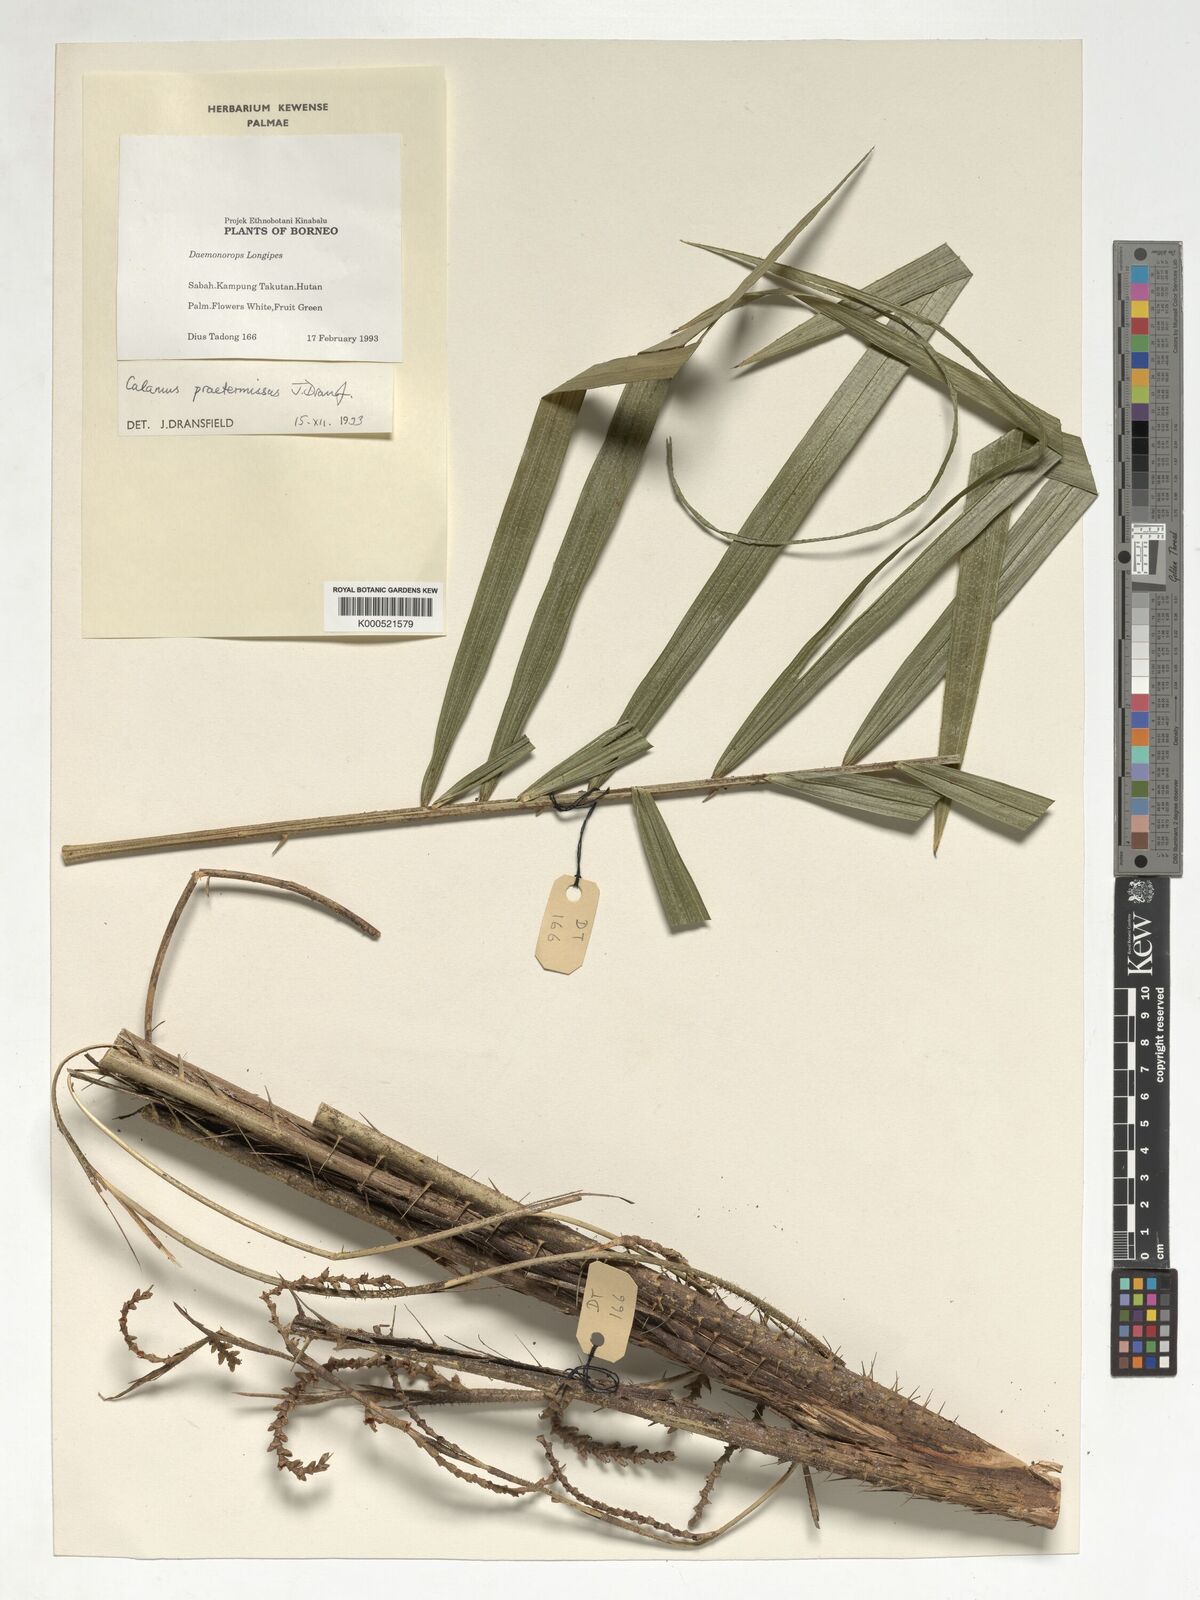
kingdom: Plantae
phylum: Tracheophyta
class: Liliopsida
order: Arecales
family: Arecaceae
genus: Calamus
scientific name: Calamus praetermissus
